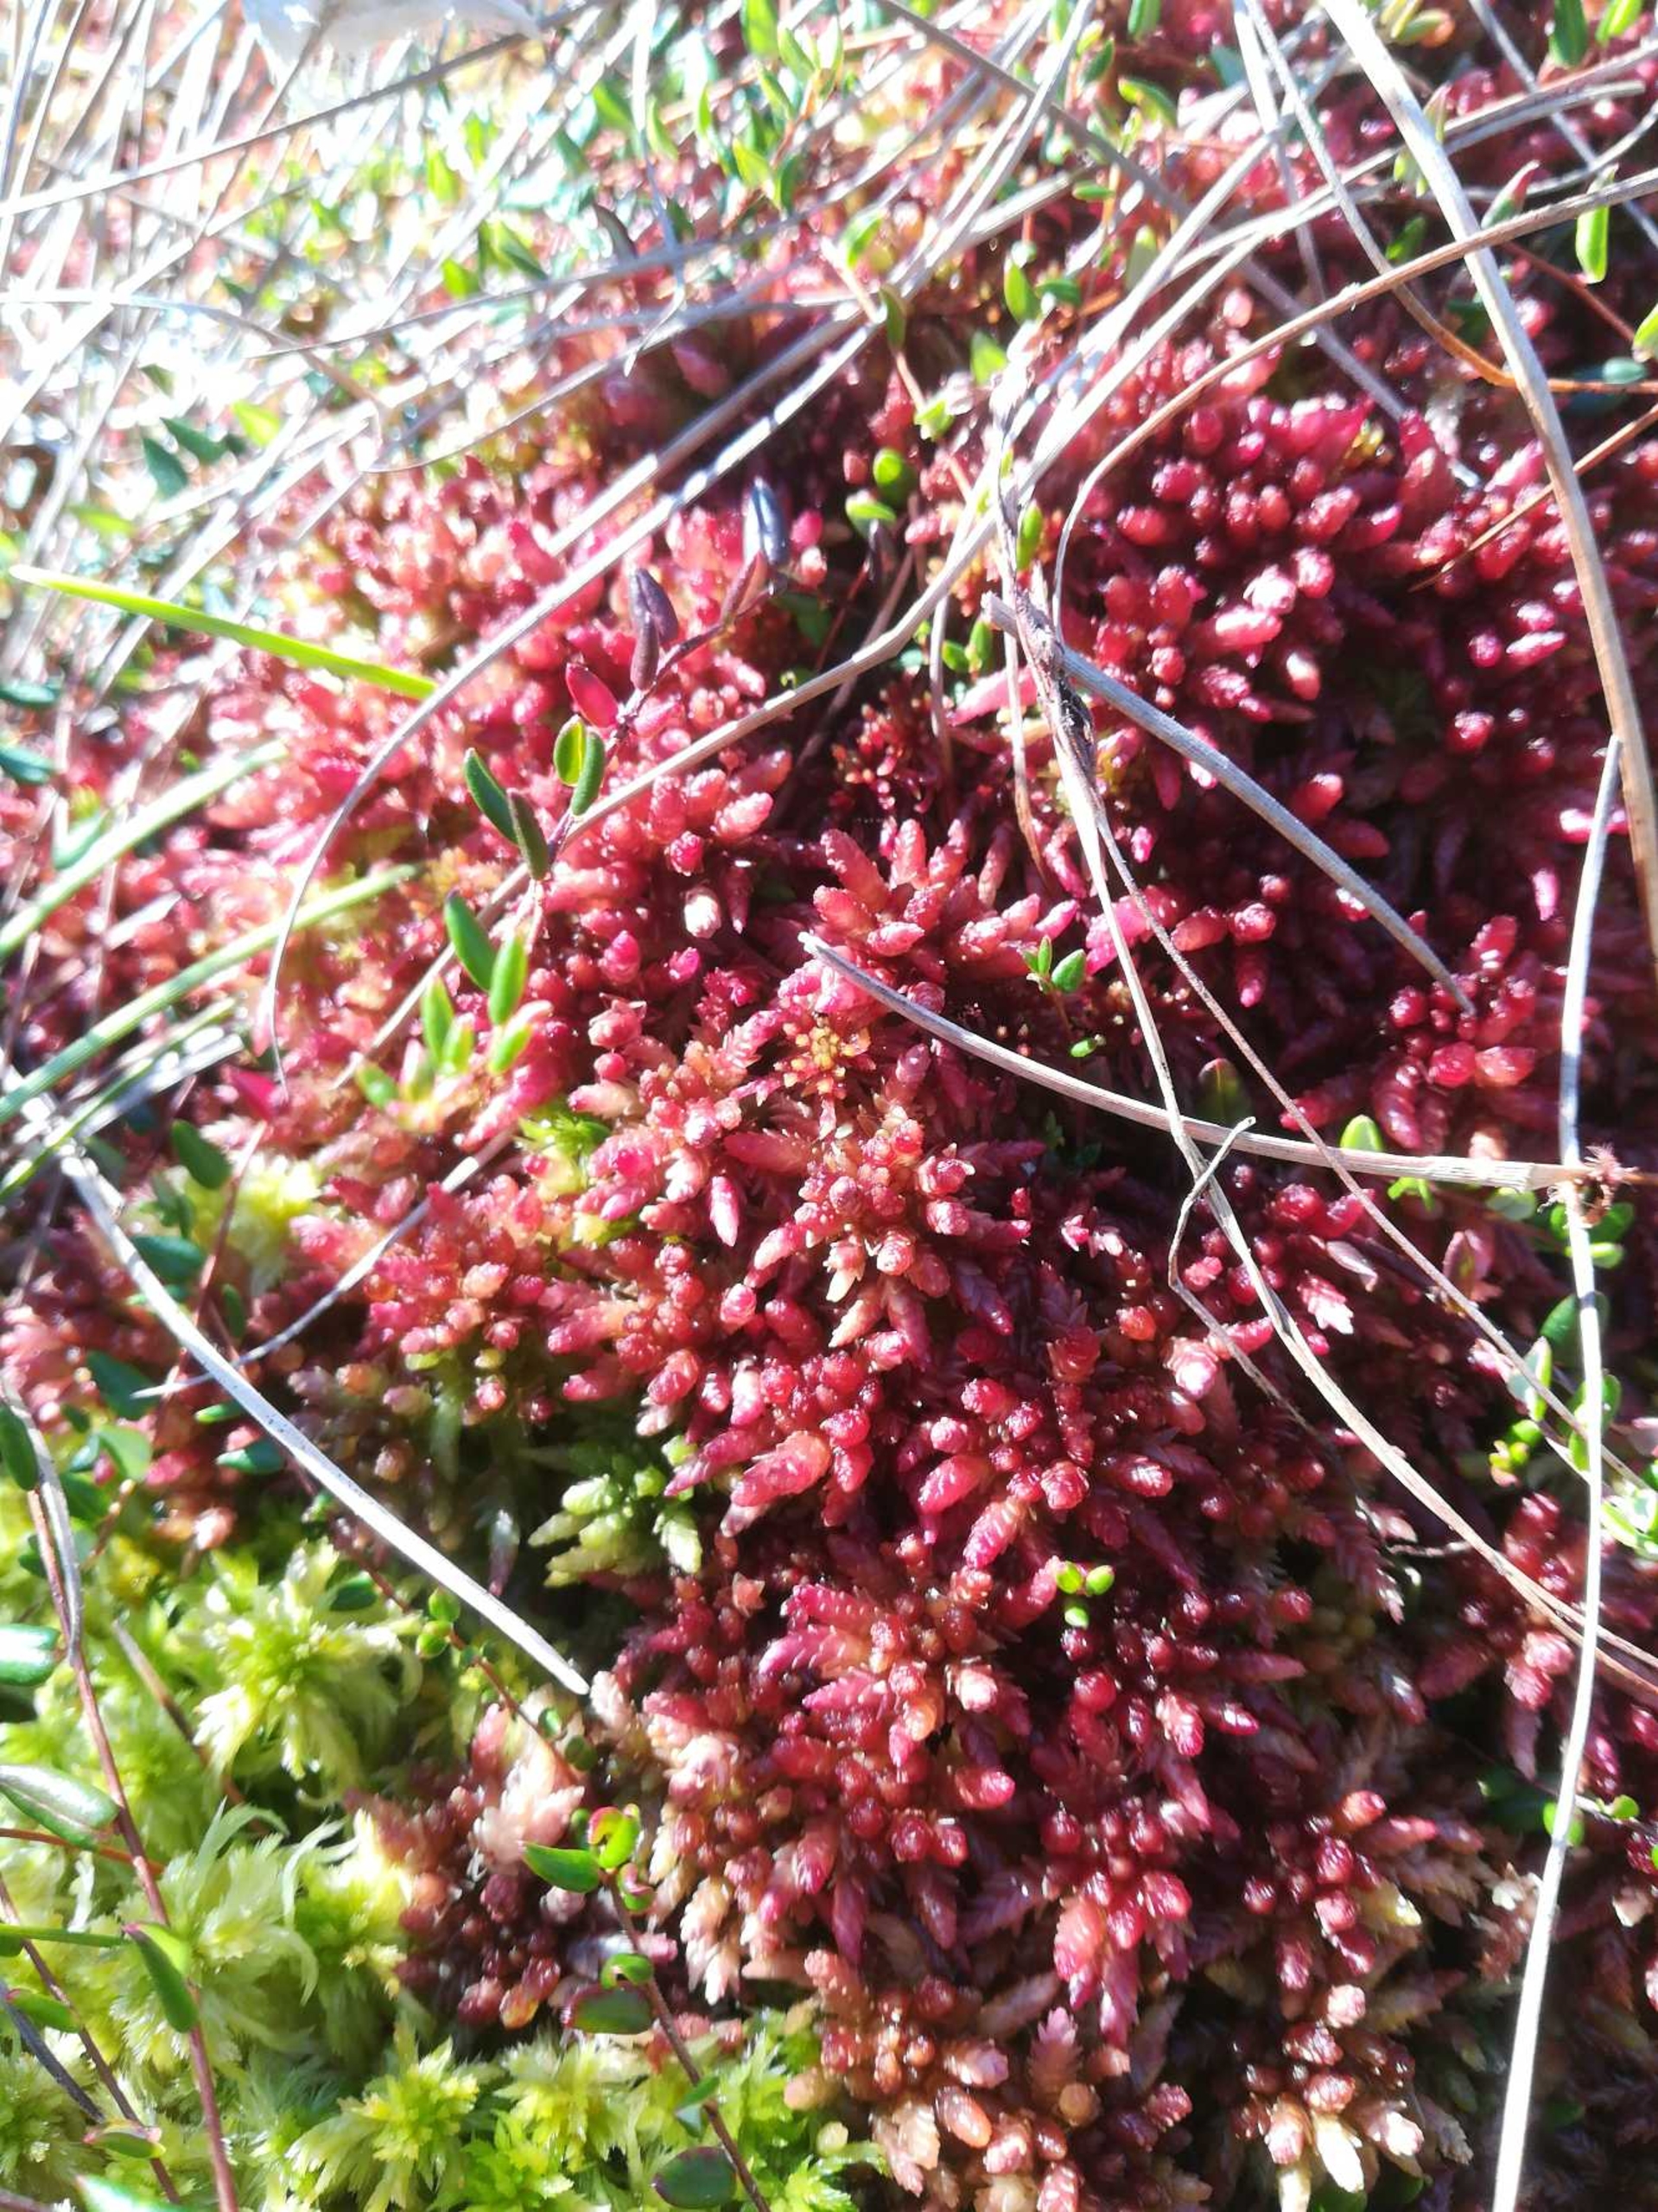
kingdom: Plantae
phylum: Bryophyta
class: Sphagnopsida
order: Sphagnales
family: Sphagnaceae
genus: Sphagnum
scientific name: Sphagnum
